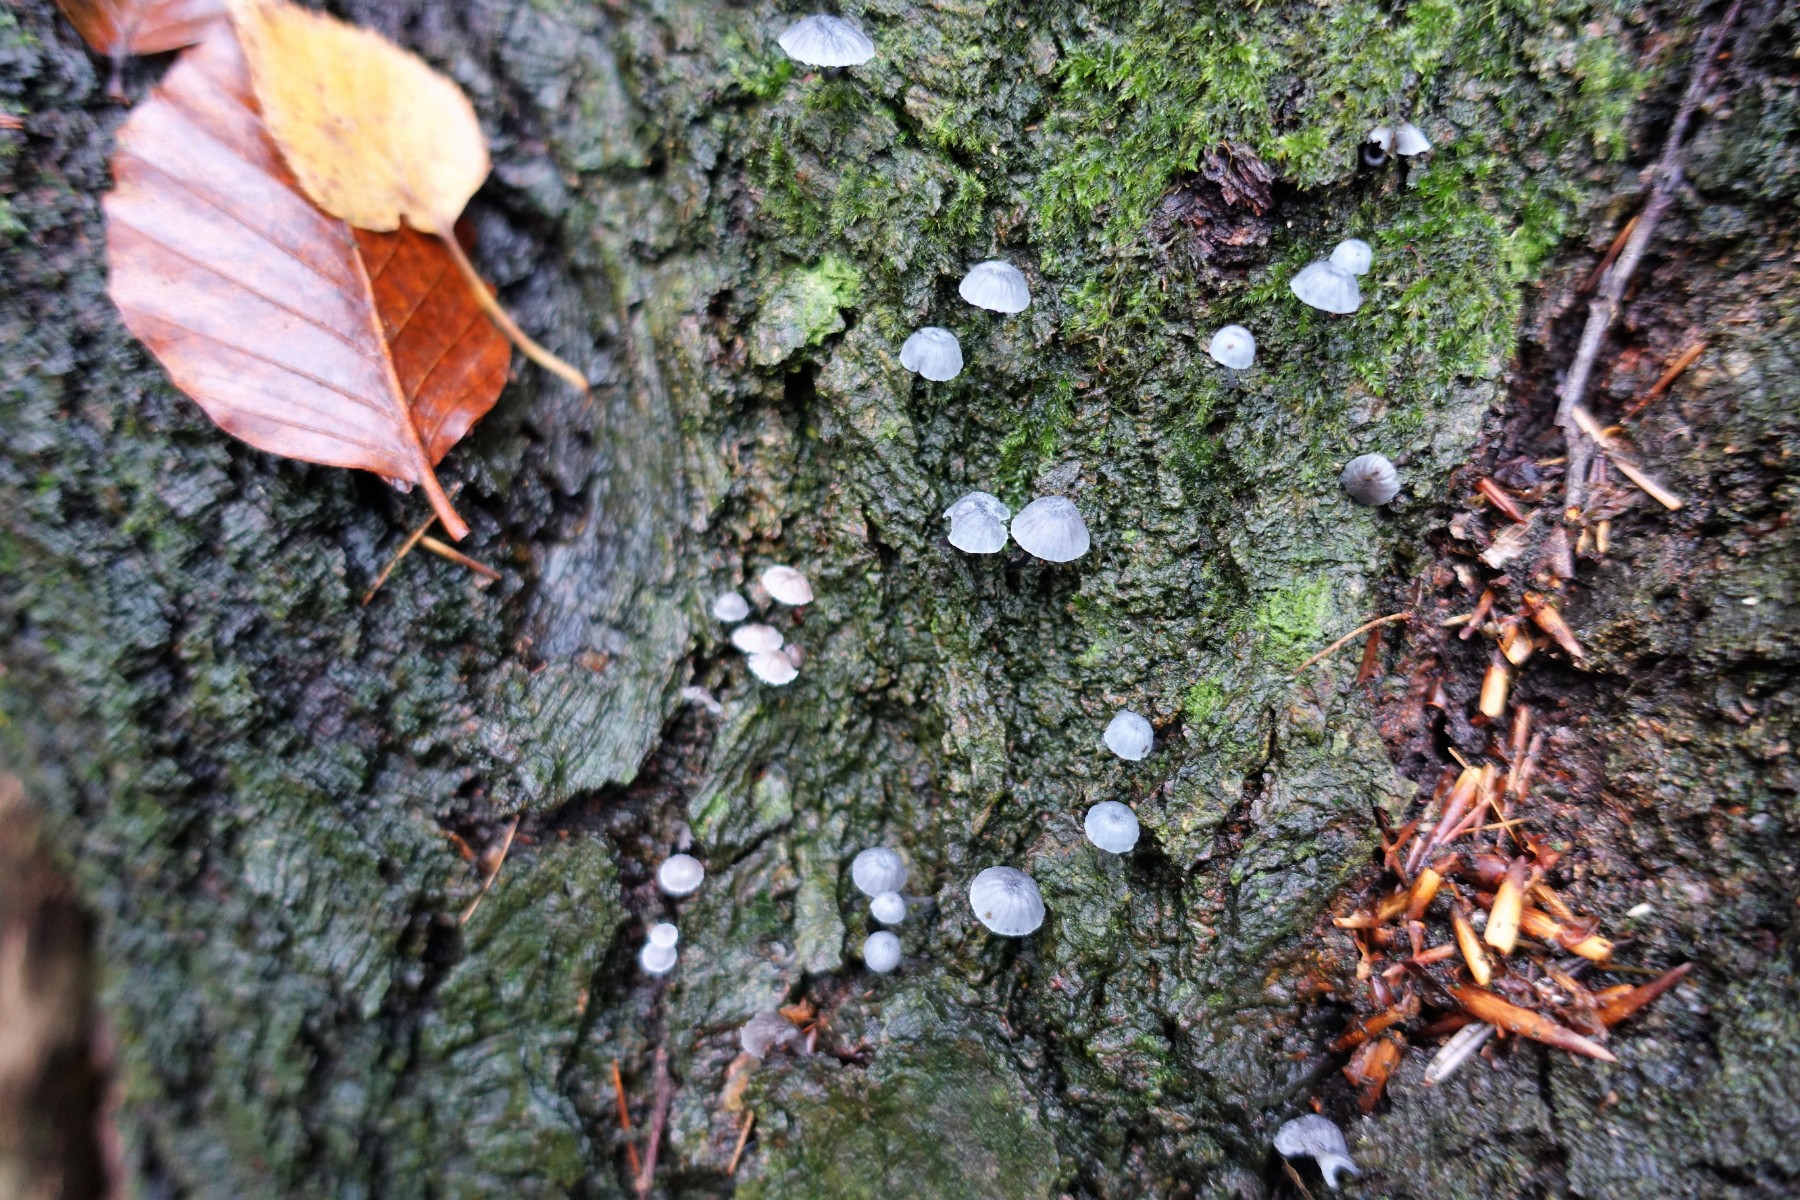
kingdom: Fungi
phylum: Basidiomycota
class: Agaricomycetes
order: Agaricales
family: Mycenaceae
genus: Mycena
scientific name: Mycena pseudocorticola
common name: gråblå bark-huesvamp
